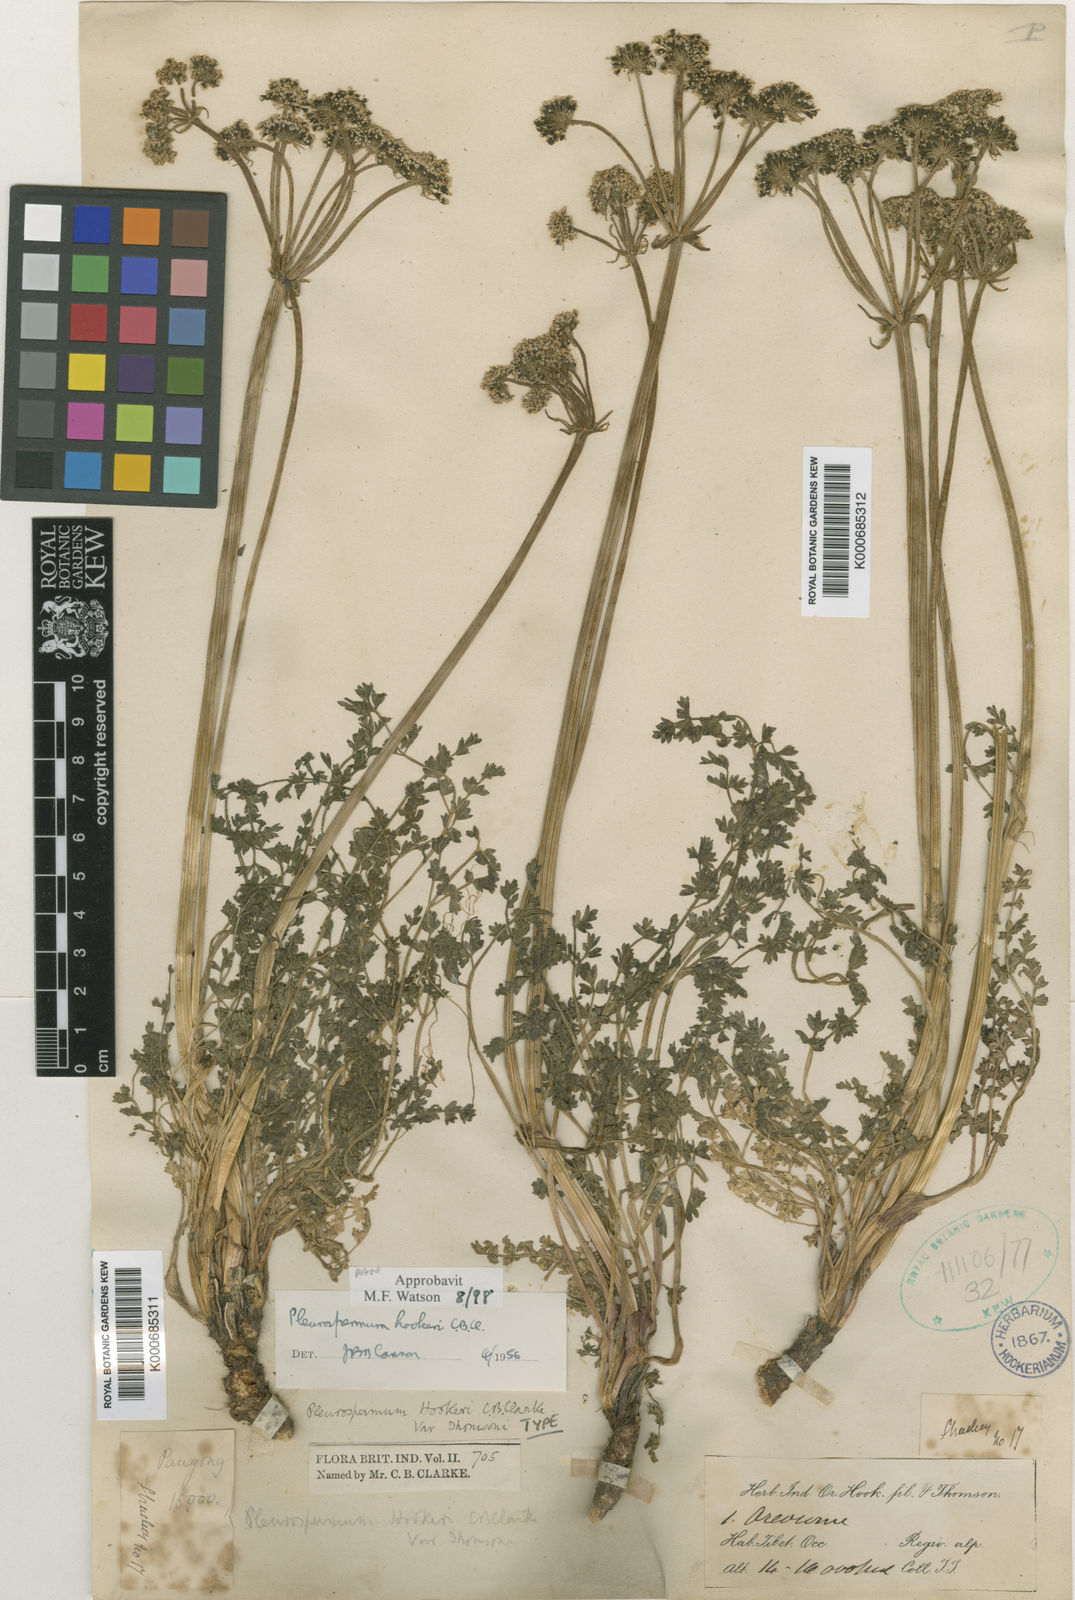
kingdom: Plantae
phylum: Tracheophyta
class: Magnoliopsida
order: Apiales
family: Apiaceae
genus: Pleurospermum
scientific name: Pleurospermum hookeri
